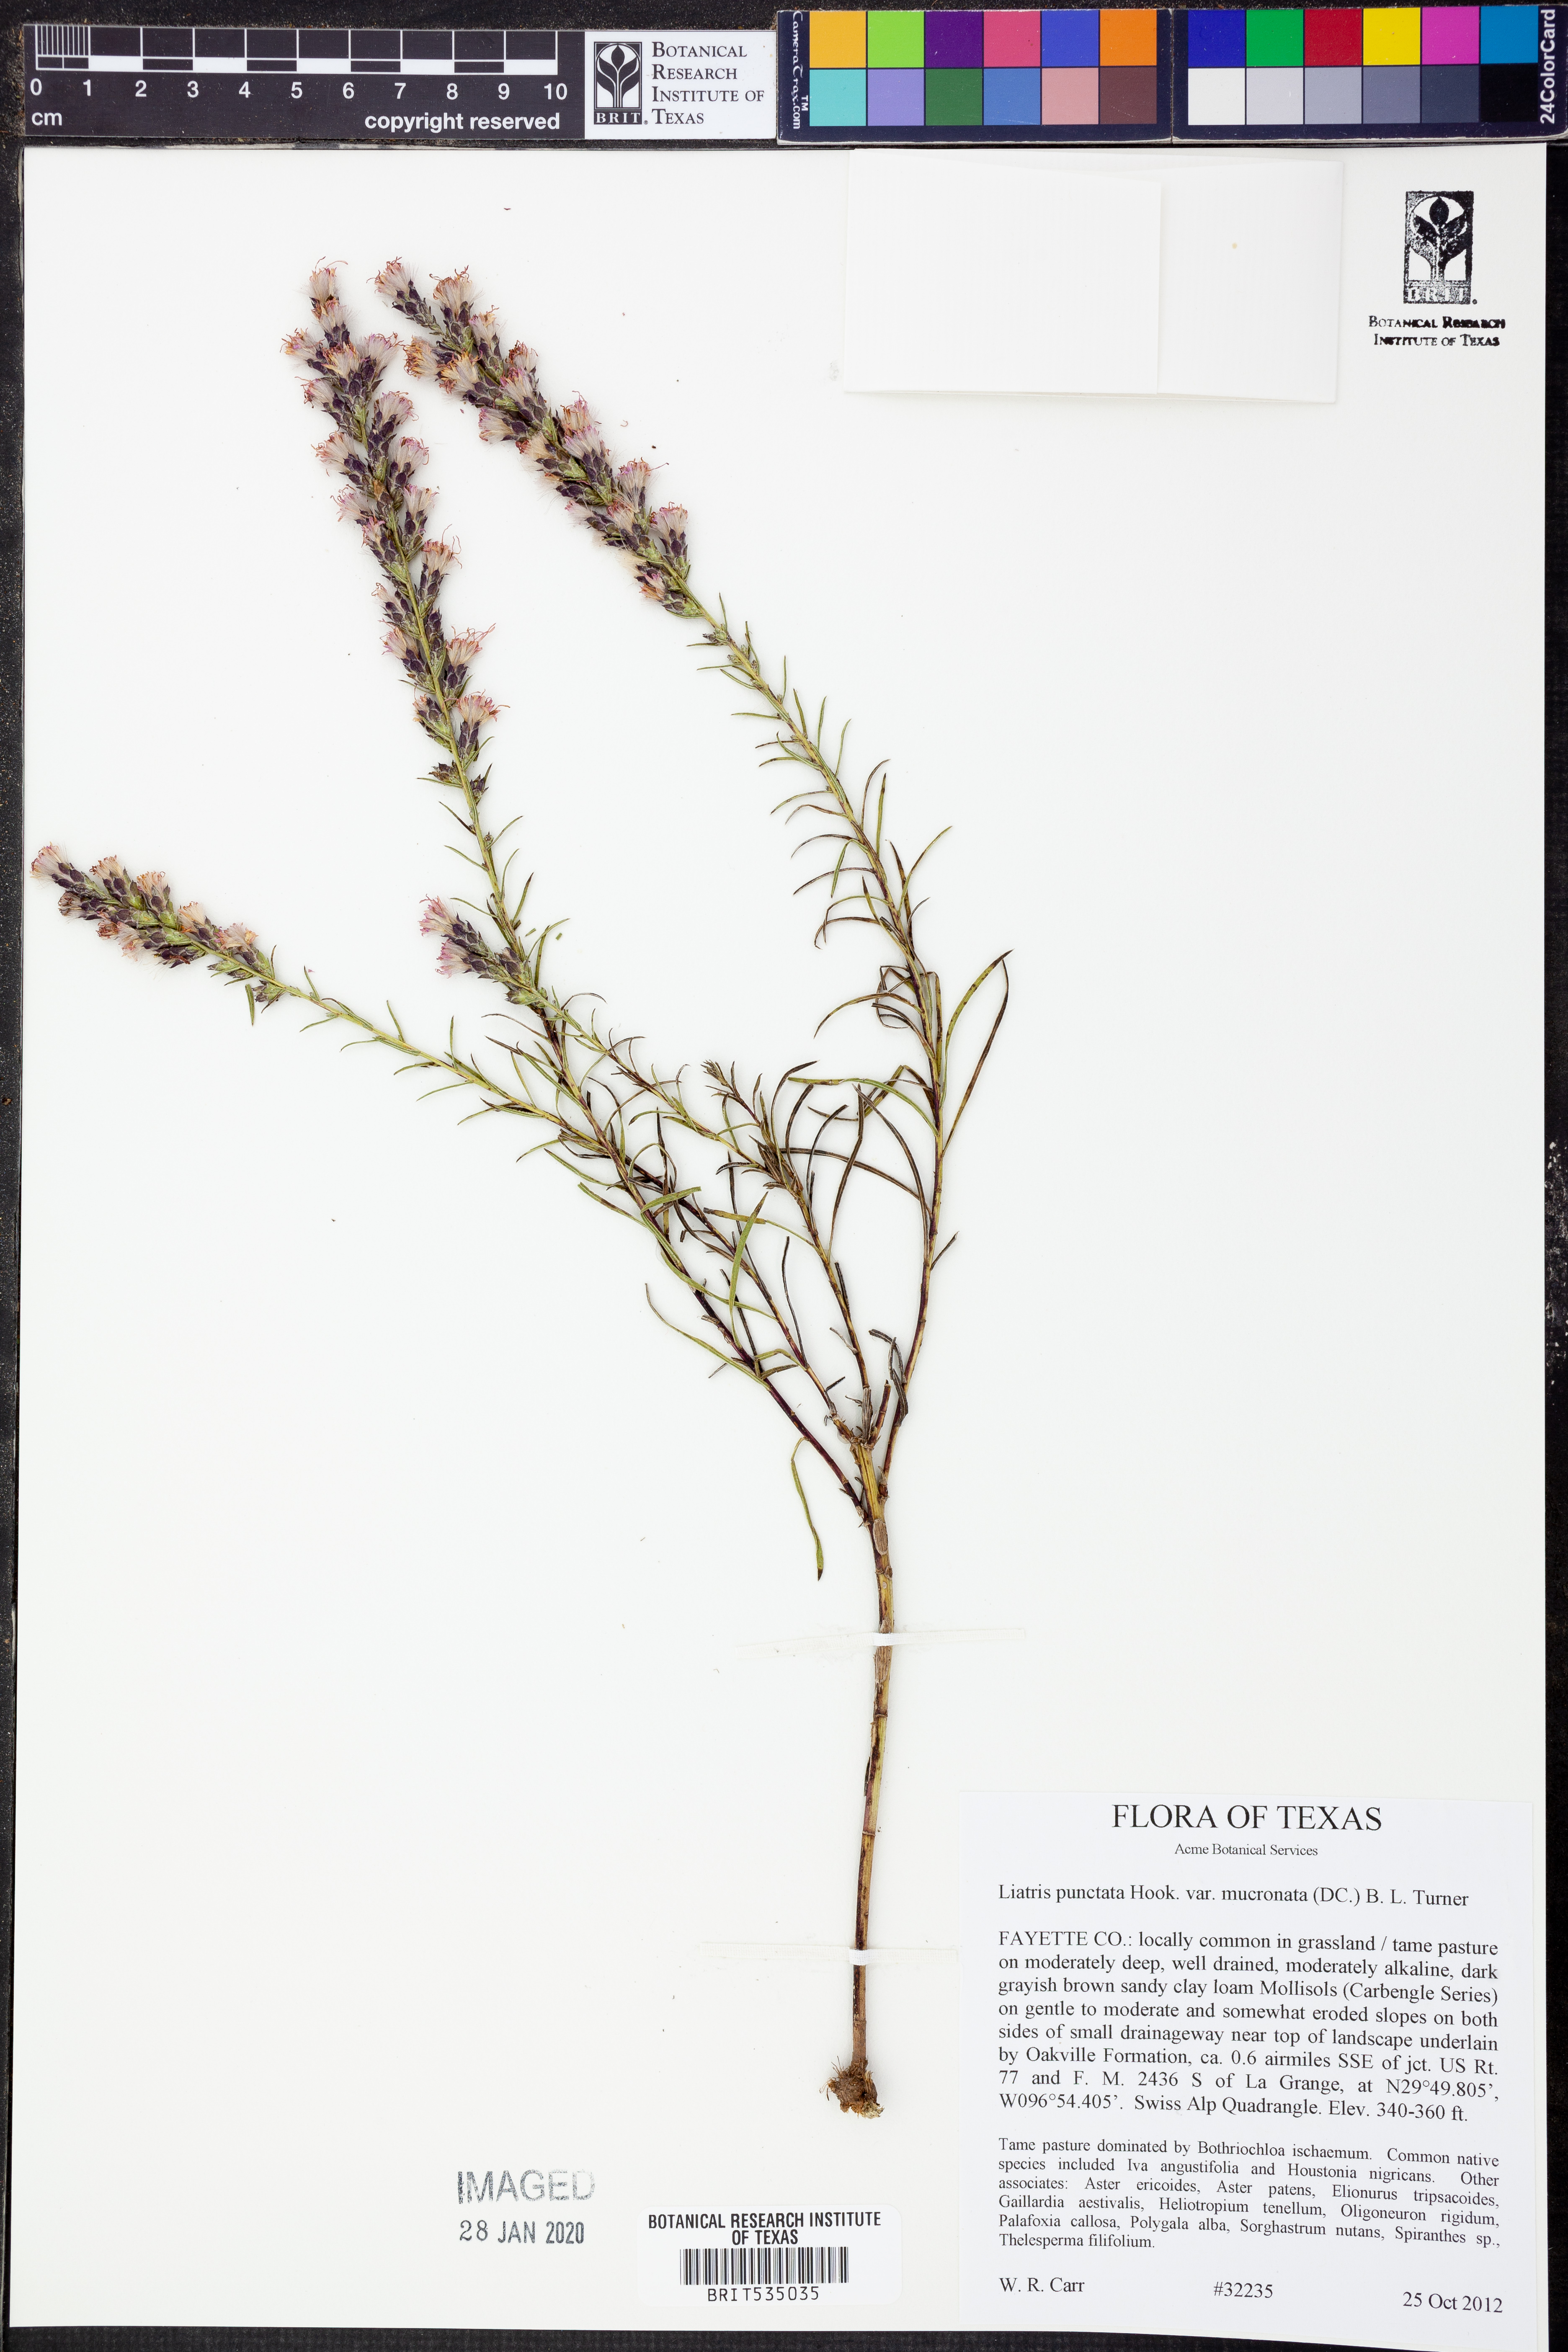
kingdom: Plantae
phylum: Tracheophyta
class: Magnoliopsida
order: Asterales
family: Asteraceae
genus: Liatris
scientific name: Liatris punctata
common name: Dotted gayfeather
